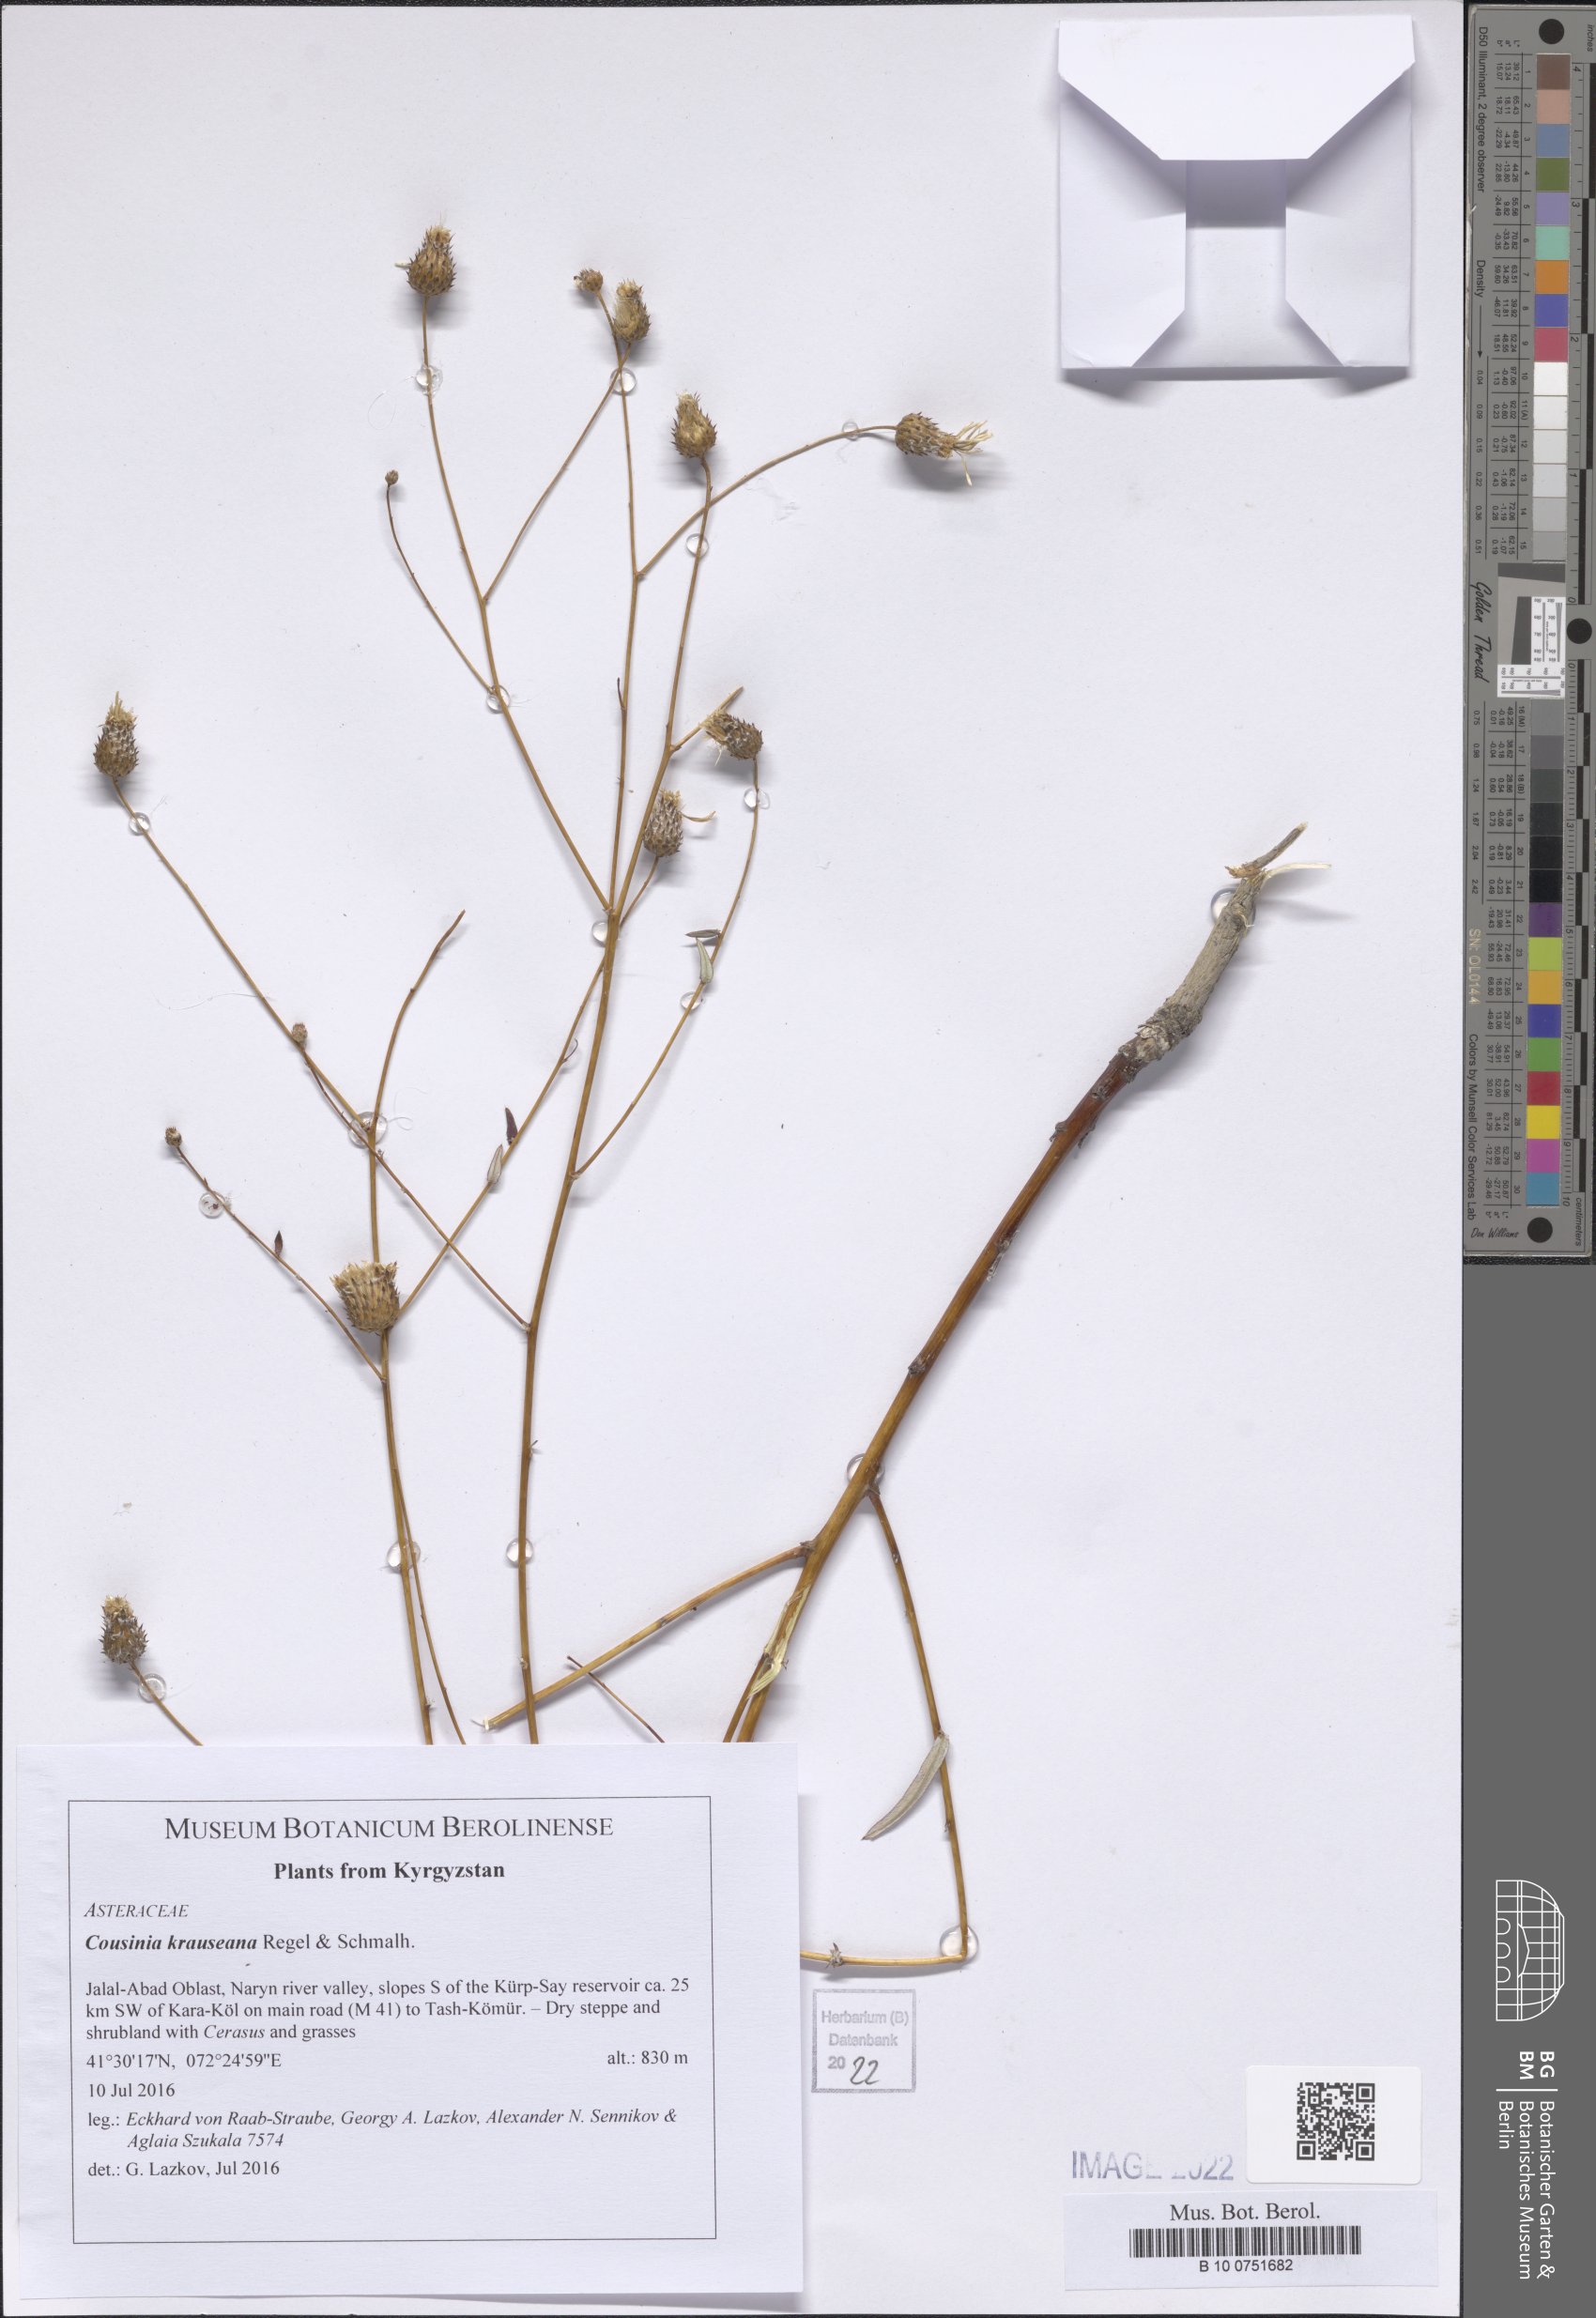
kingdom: Plantae
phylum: Tracheophyta
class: Magnoliopsida
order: Asterales
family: Asteraceae
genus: Cousinia
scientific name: Cousinia krauseana
